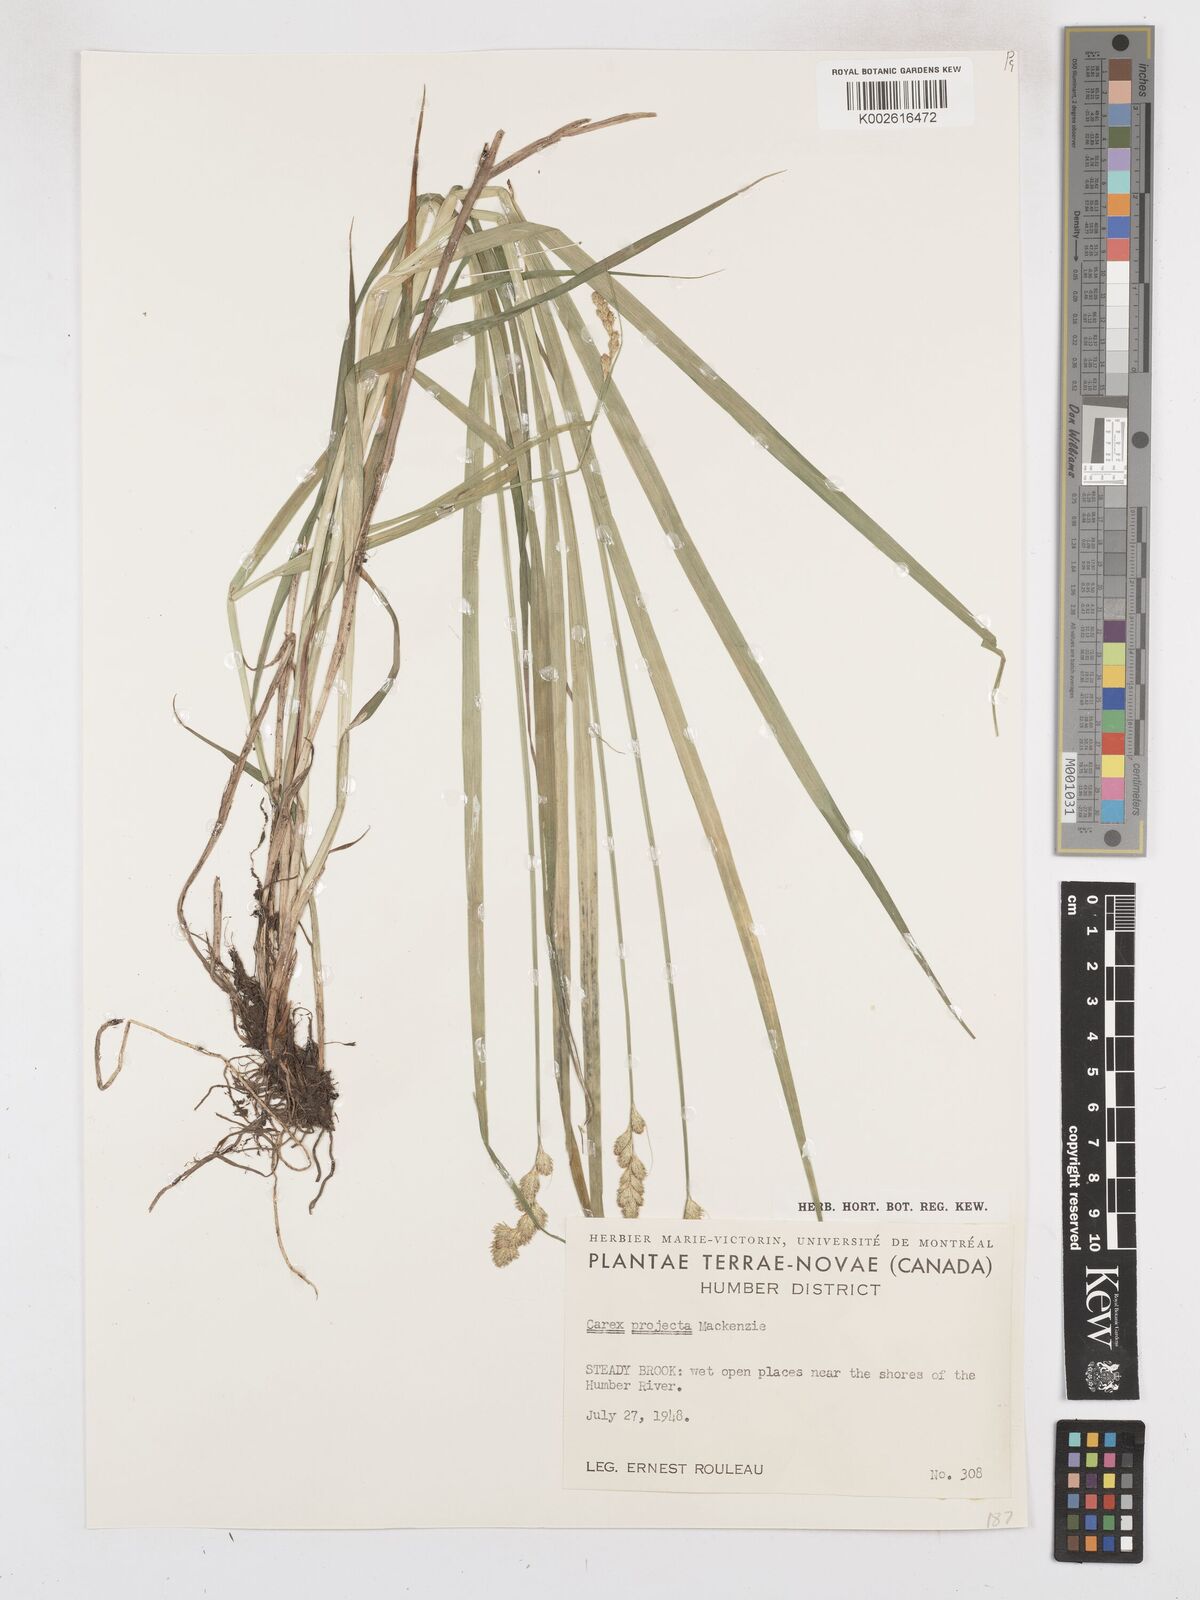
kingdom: Plantae
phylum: Tracheophyta
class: Liliopsida
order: Poales
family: Cyperaceae
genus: Carex
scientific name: Carex projecta
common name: Loose-headed oval sedge
